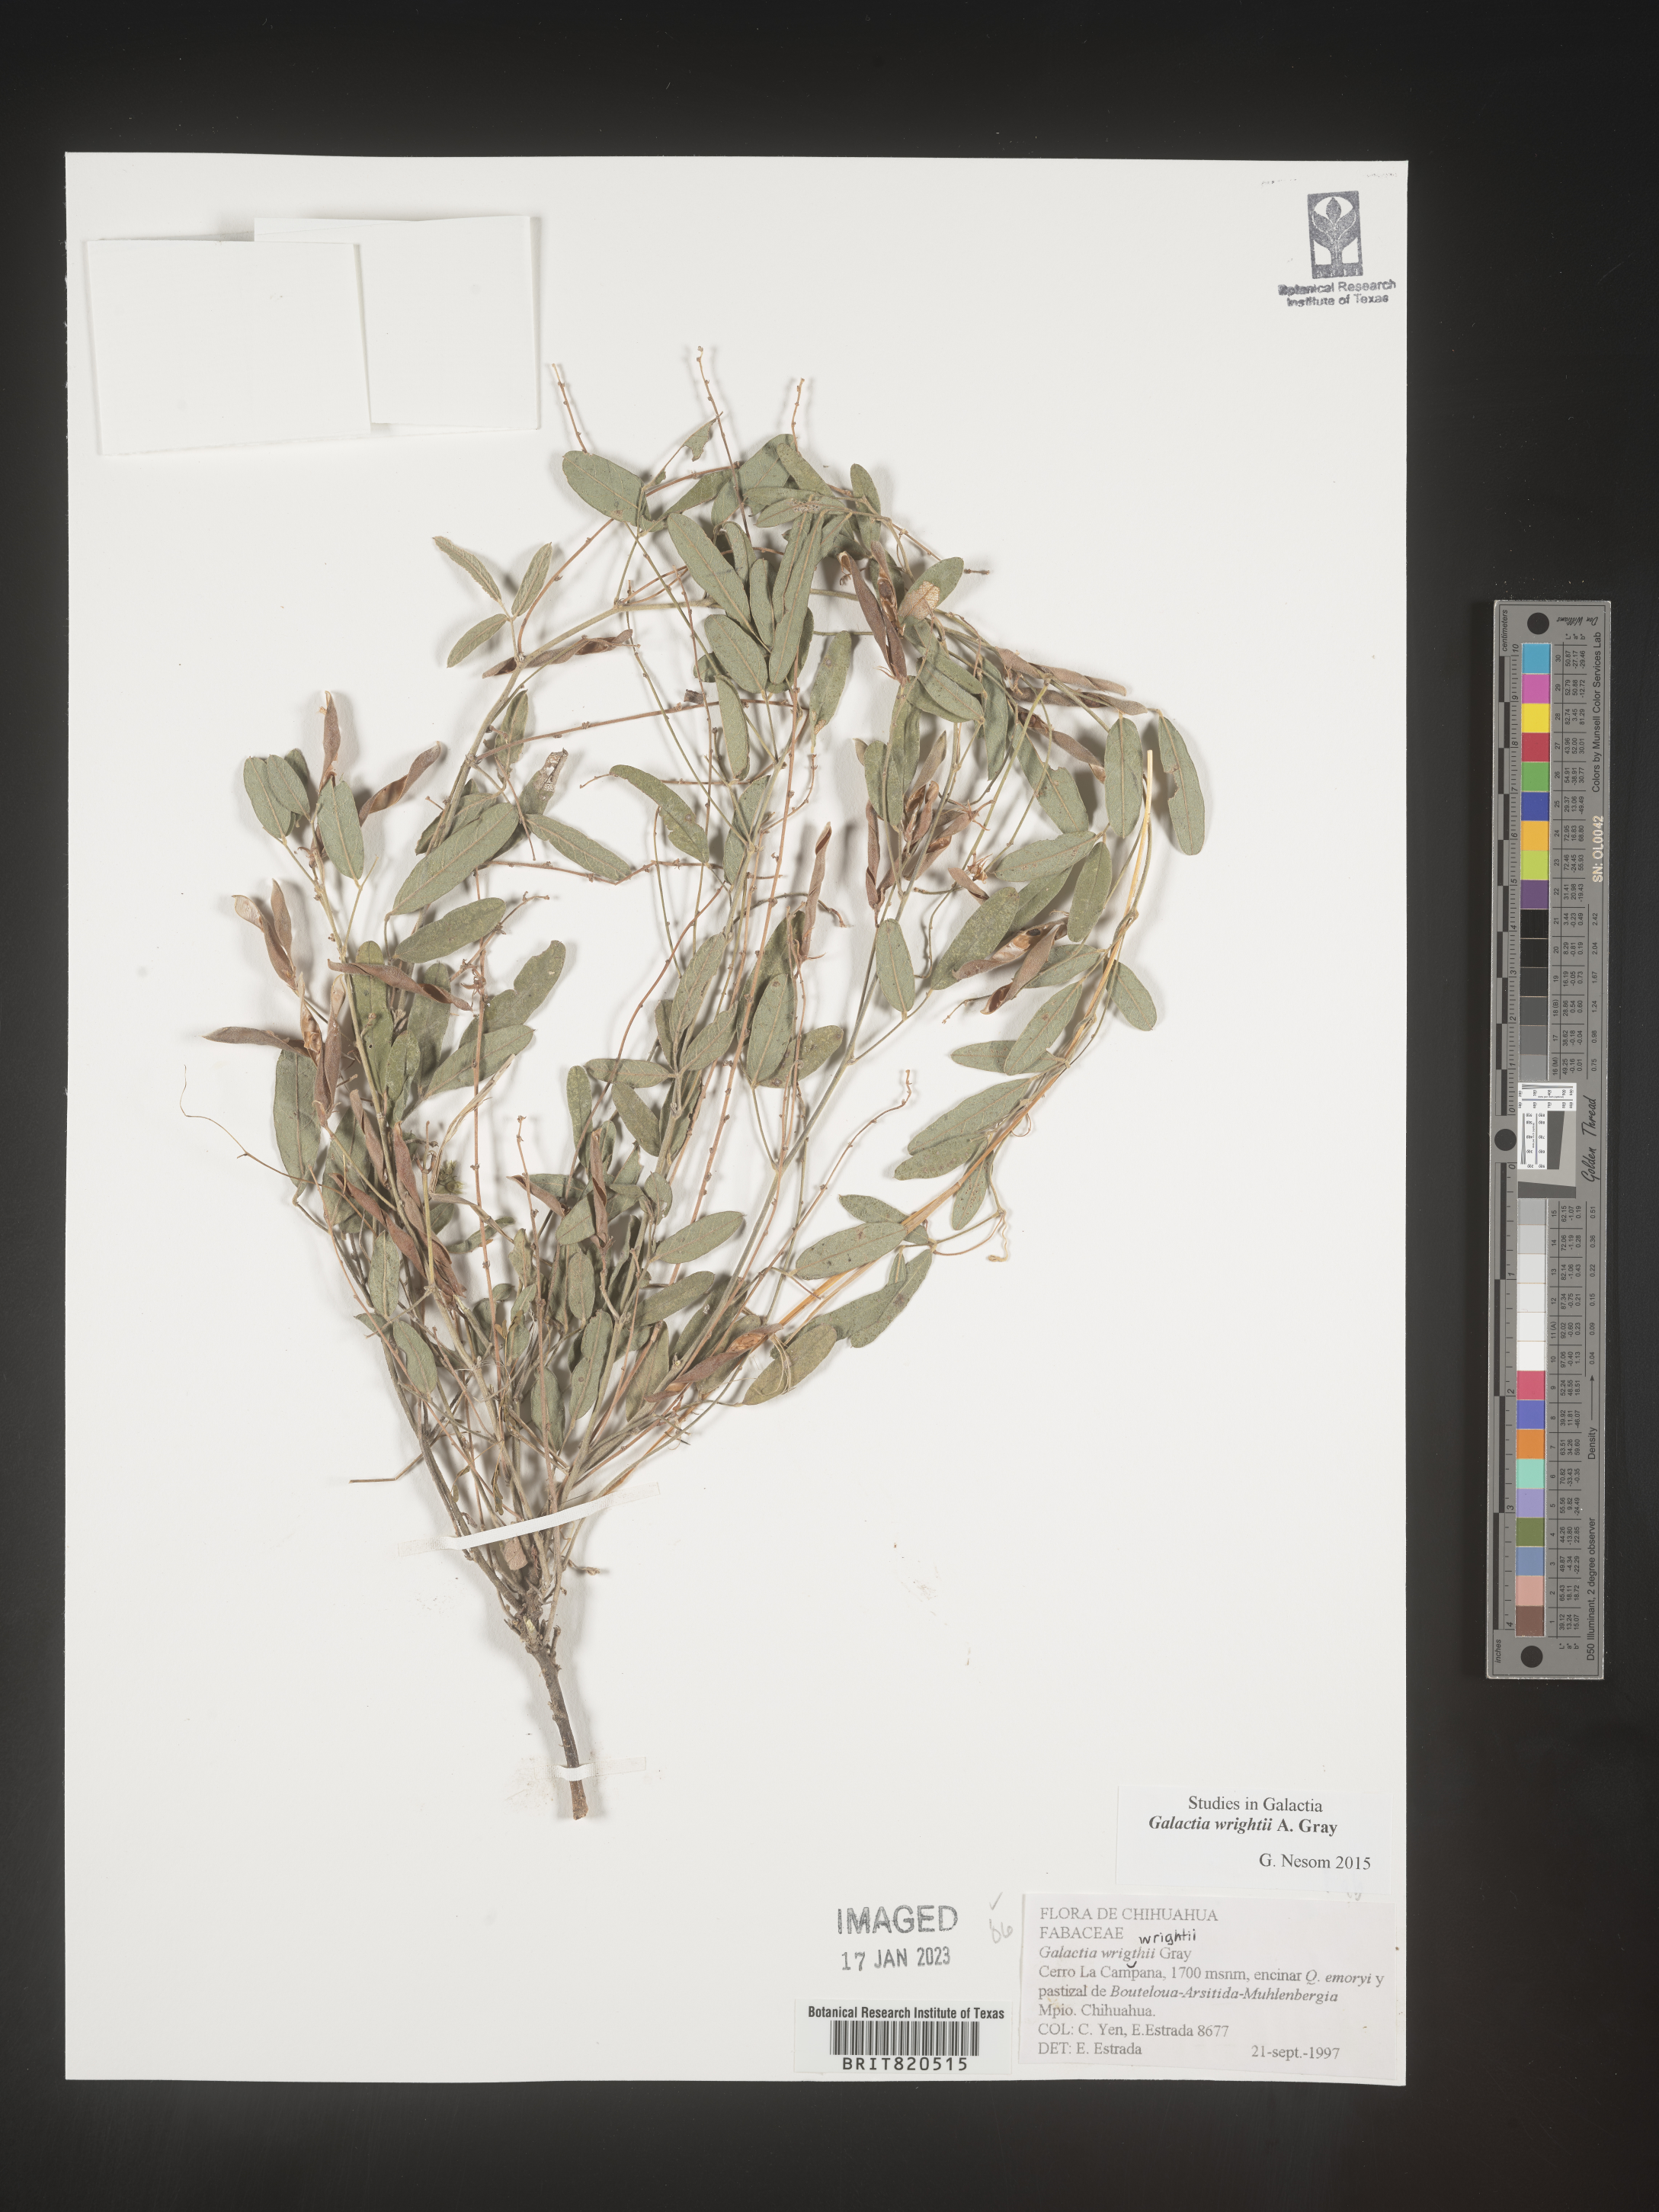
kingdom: Plantae
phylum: Tracheophyta
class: Magnoliopsida
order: Fabales
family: Fabaceae
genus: Galactia
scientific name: Galactia wrightii
